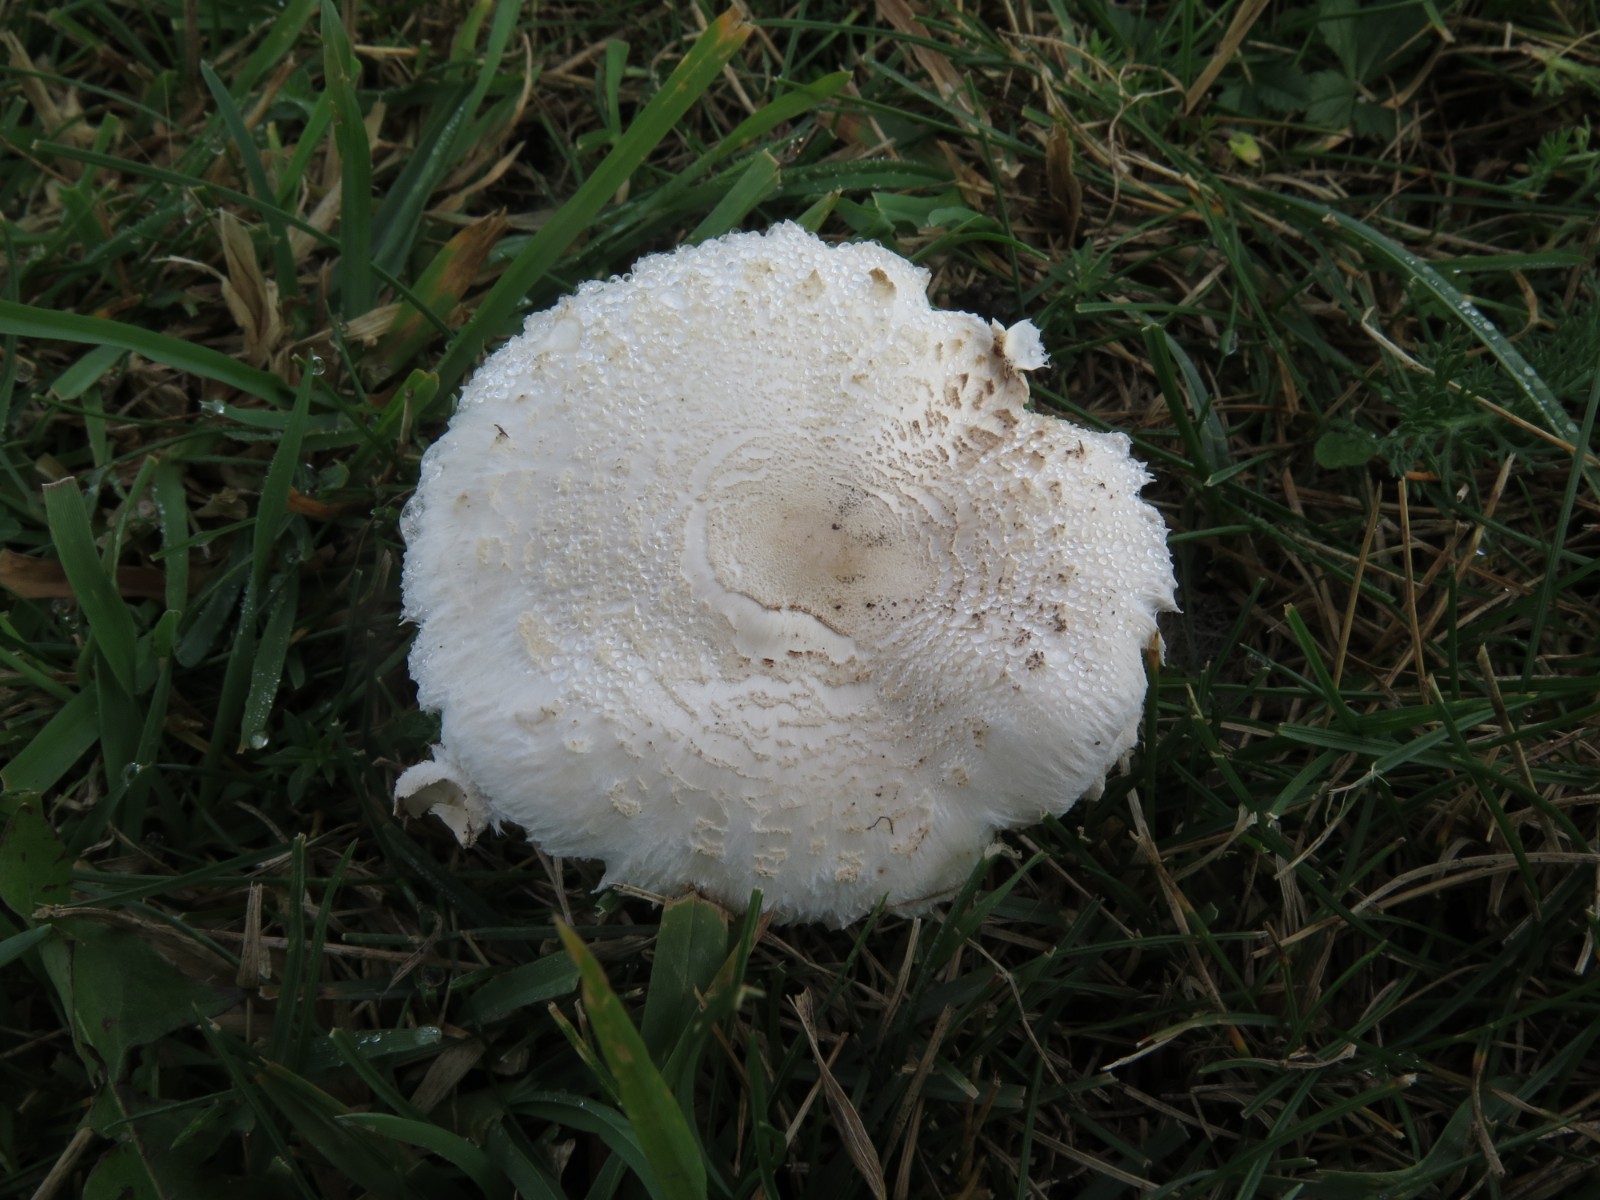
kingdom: Fungi
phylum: Basidiomycota
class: Agaricomycetes
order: Agaricales
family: Agaricaceae
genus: Macrolepiota
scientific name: Macrolepiota excoriata
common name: mark-kæmpeparasolhat
